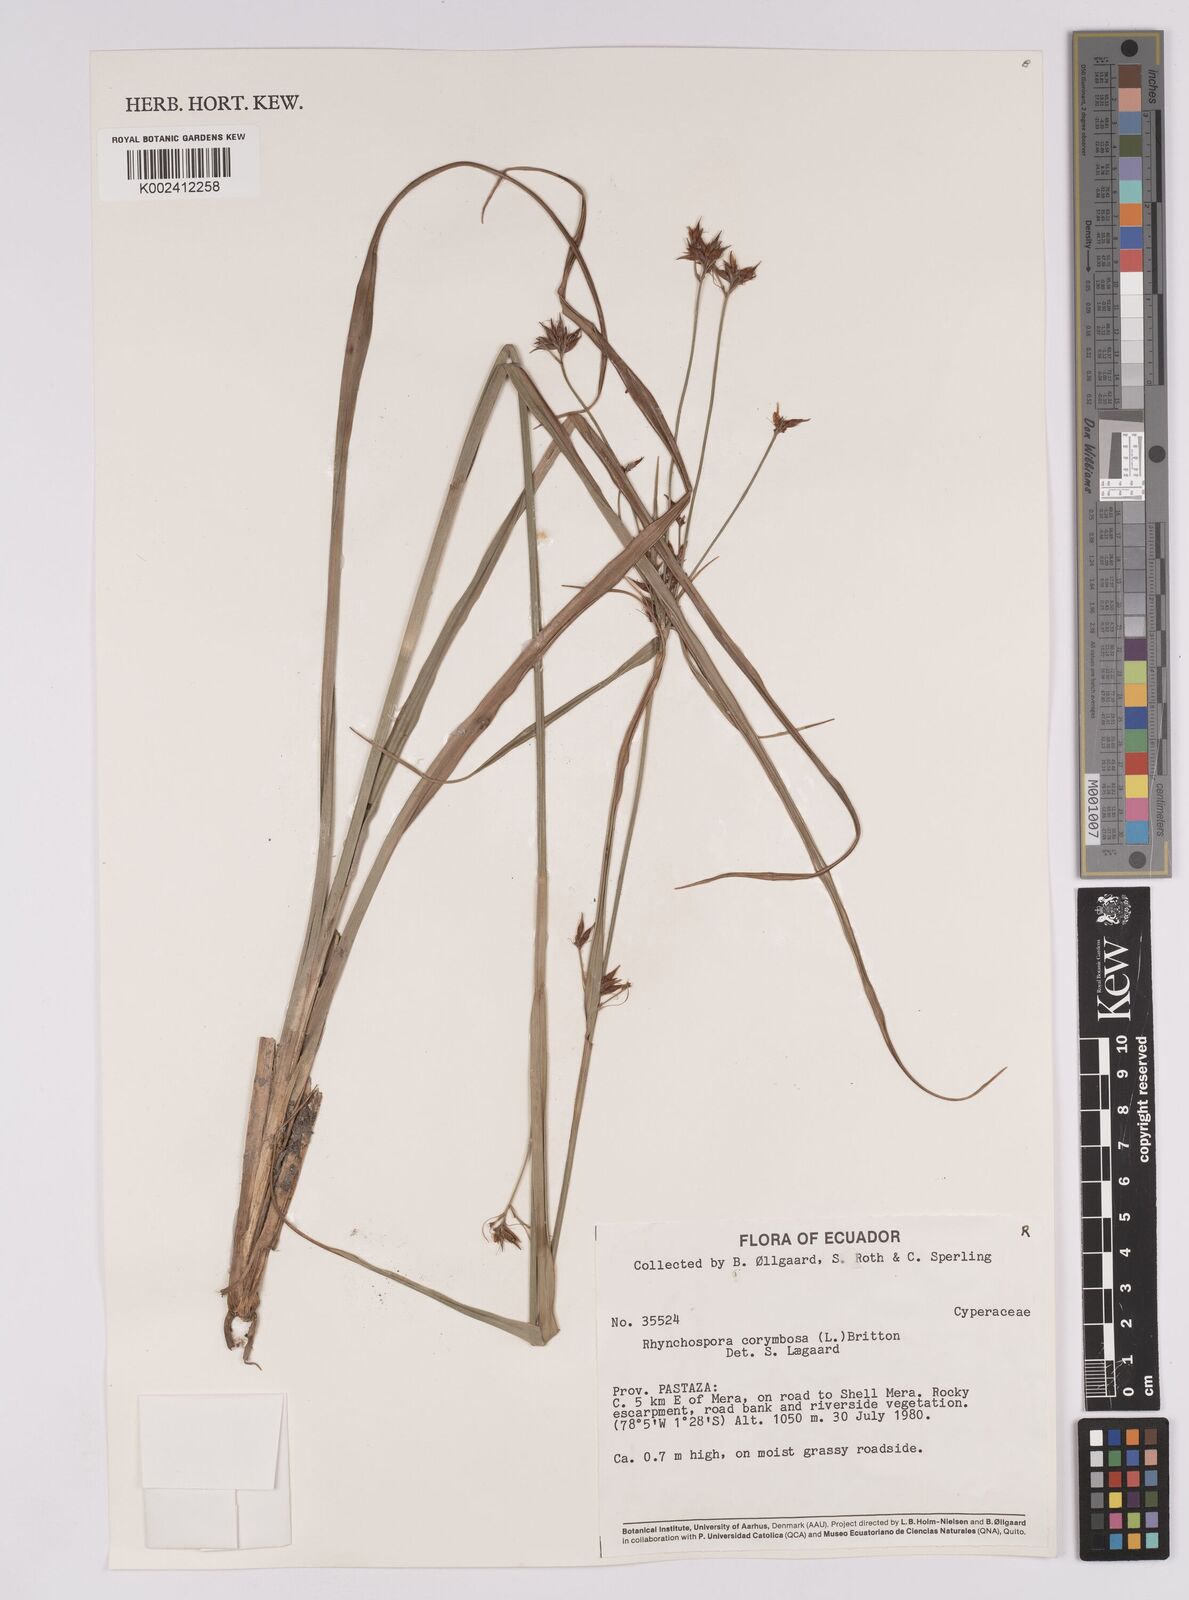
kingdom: Plantae
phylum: Tracheophyta
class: Liliopsida
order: Poales
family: Cyperaceae
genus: Rhynchospora
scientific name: Rhynchospora corymbosa
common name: Golden beak sedge
